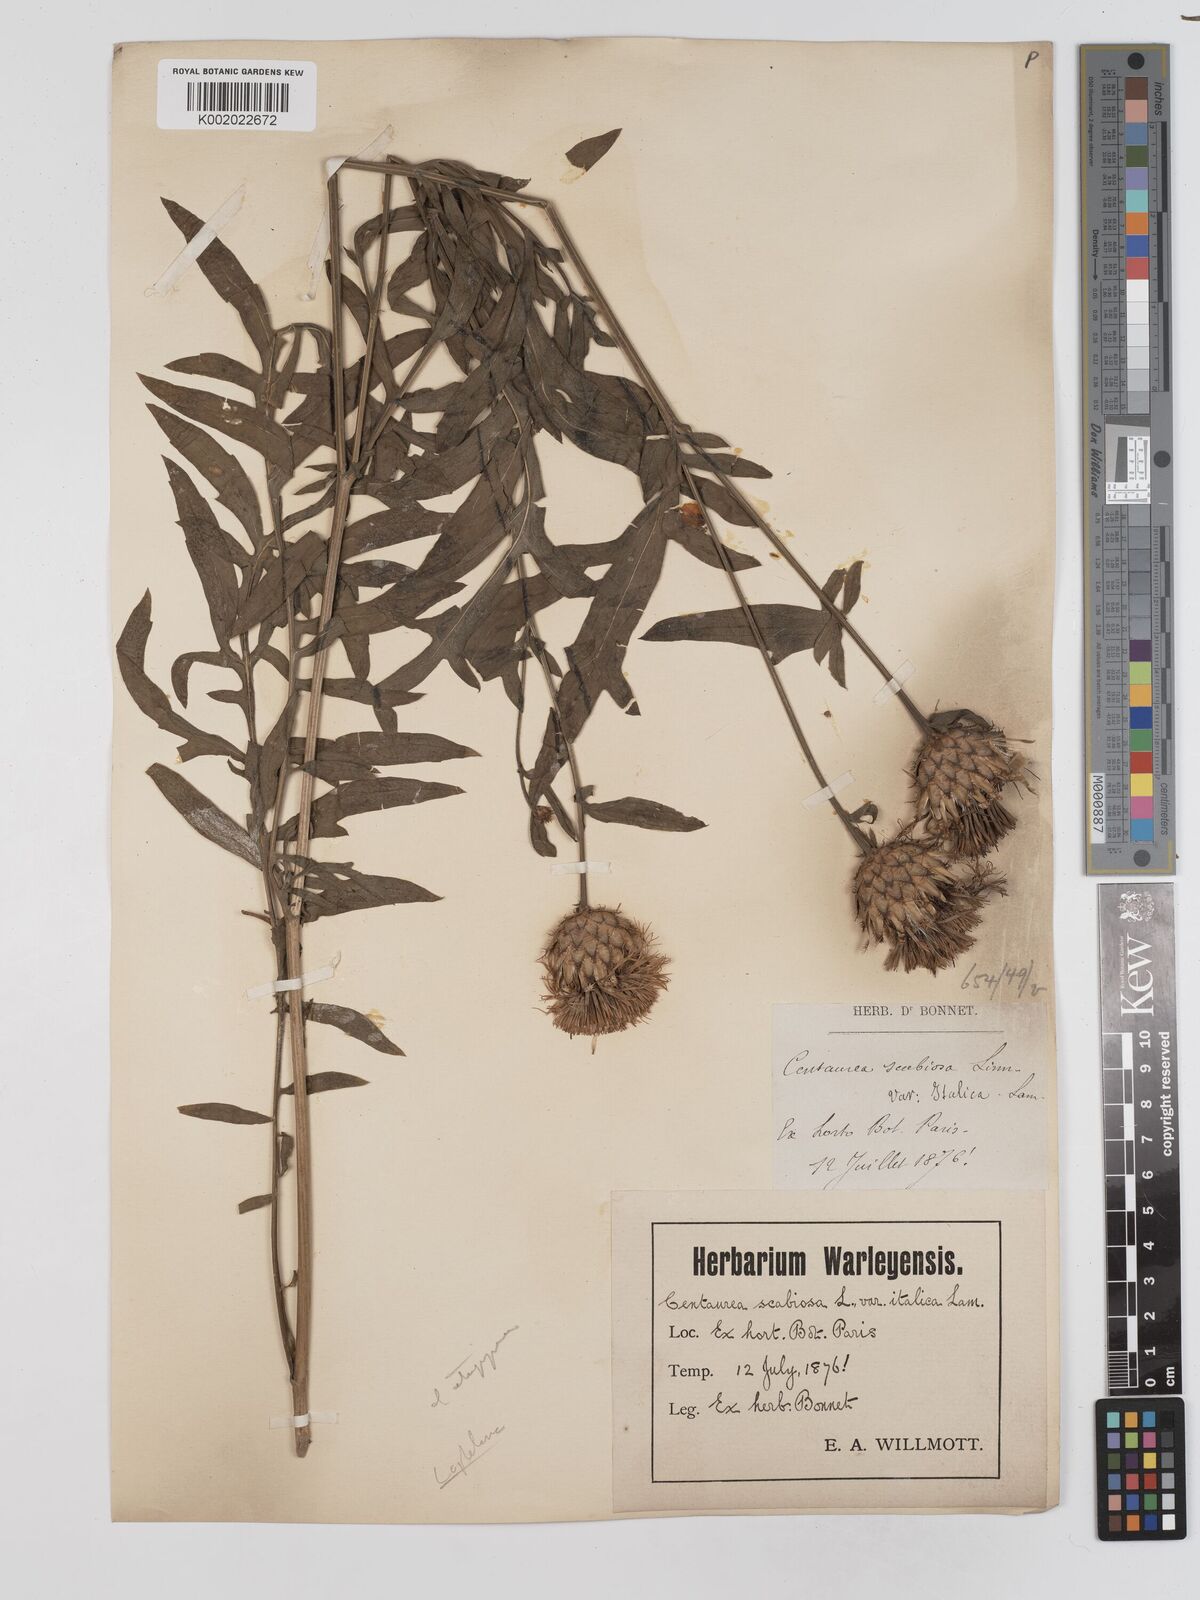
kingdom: Plantae
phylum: Tracheophyta
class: Magnoliopsida
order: Asterales
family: Asteraceae
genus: Centaurea
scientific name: Centaurea apiculata
